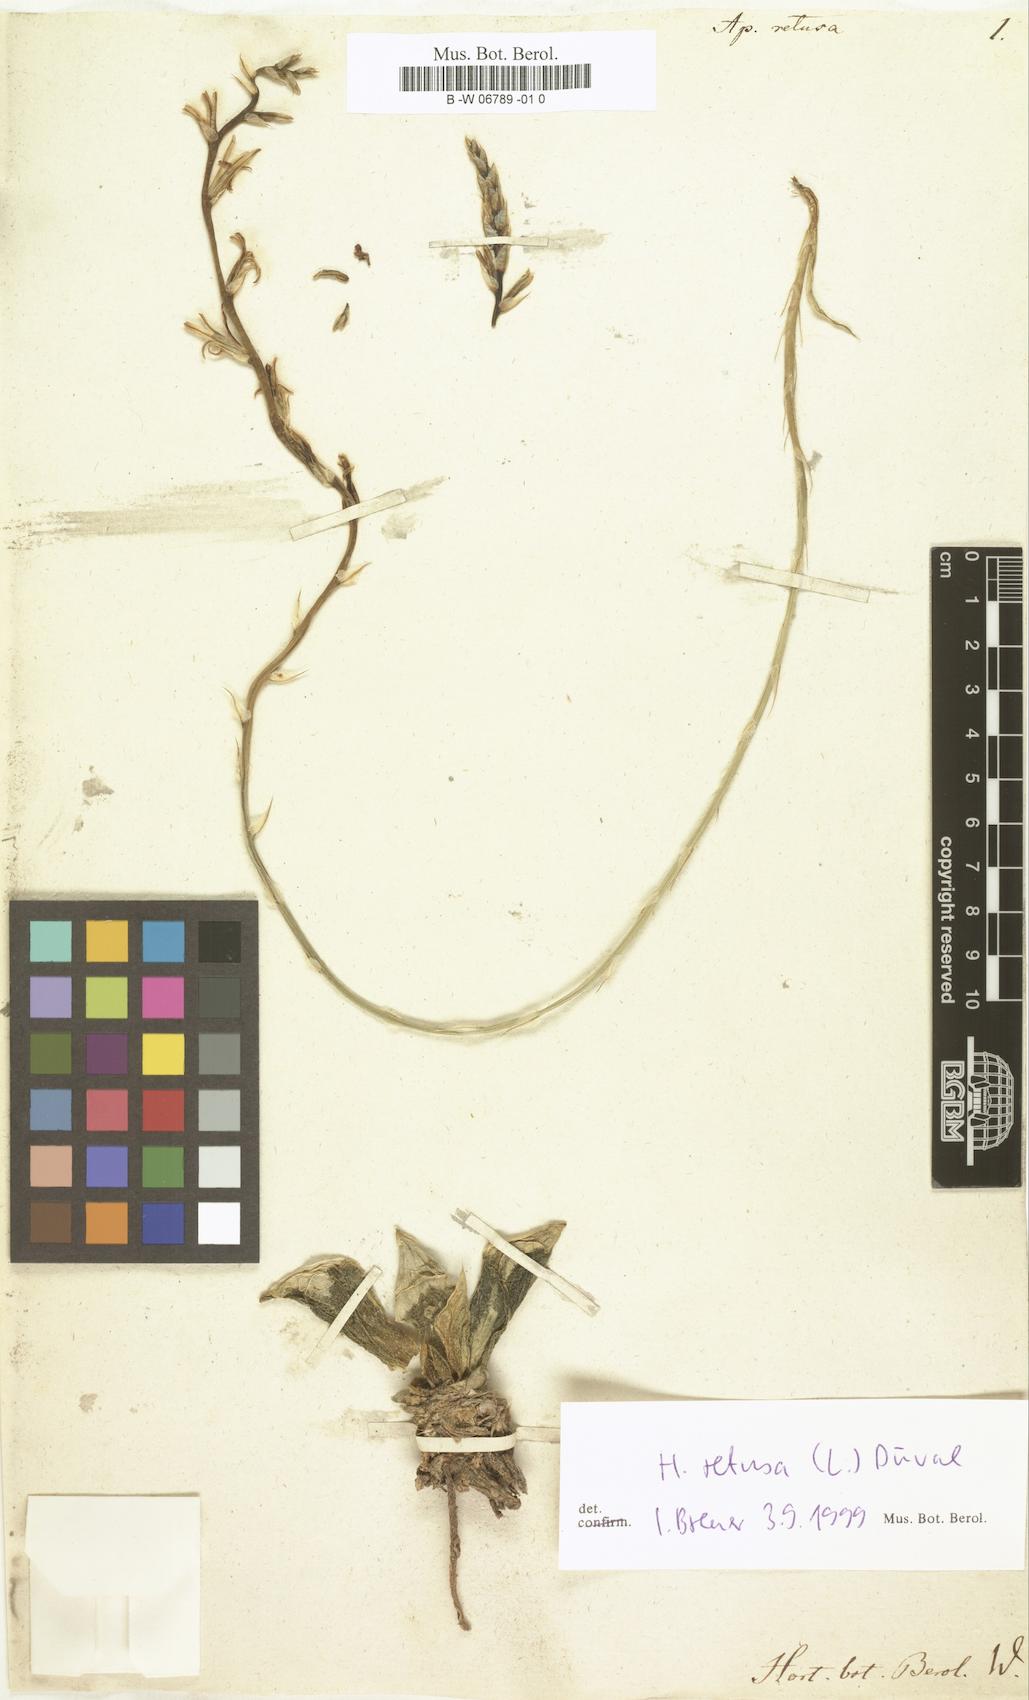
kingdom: Plantae
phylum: Tracheophyta
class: Liliopsida
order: Asparagales
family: Asphodelaceae
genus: Haworthia
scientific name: Haworthia retusa
